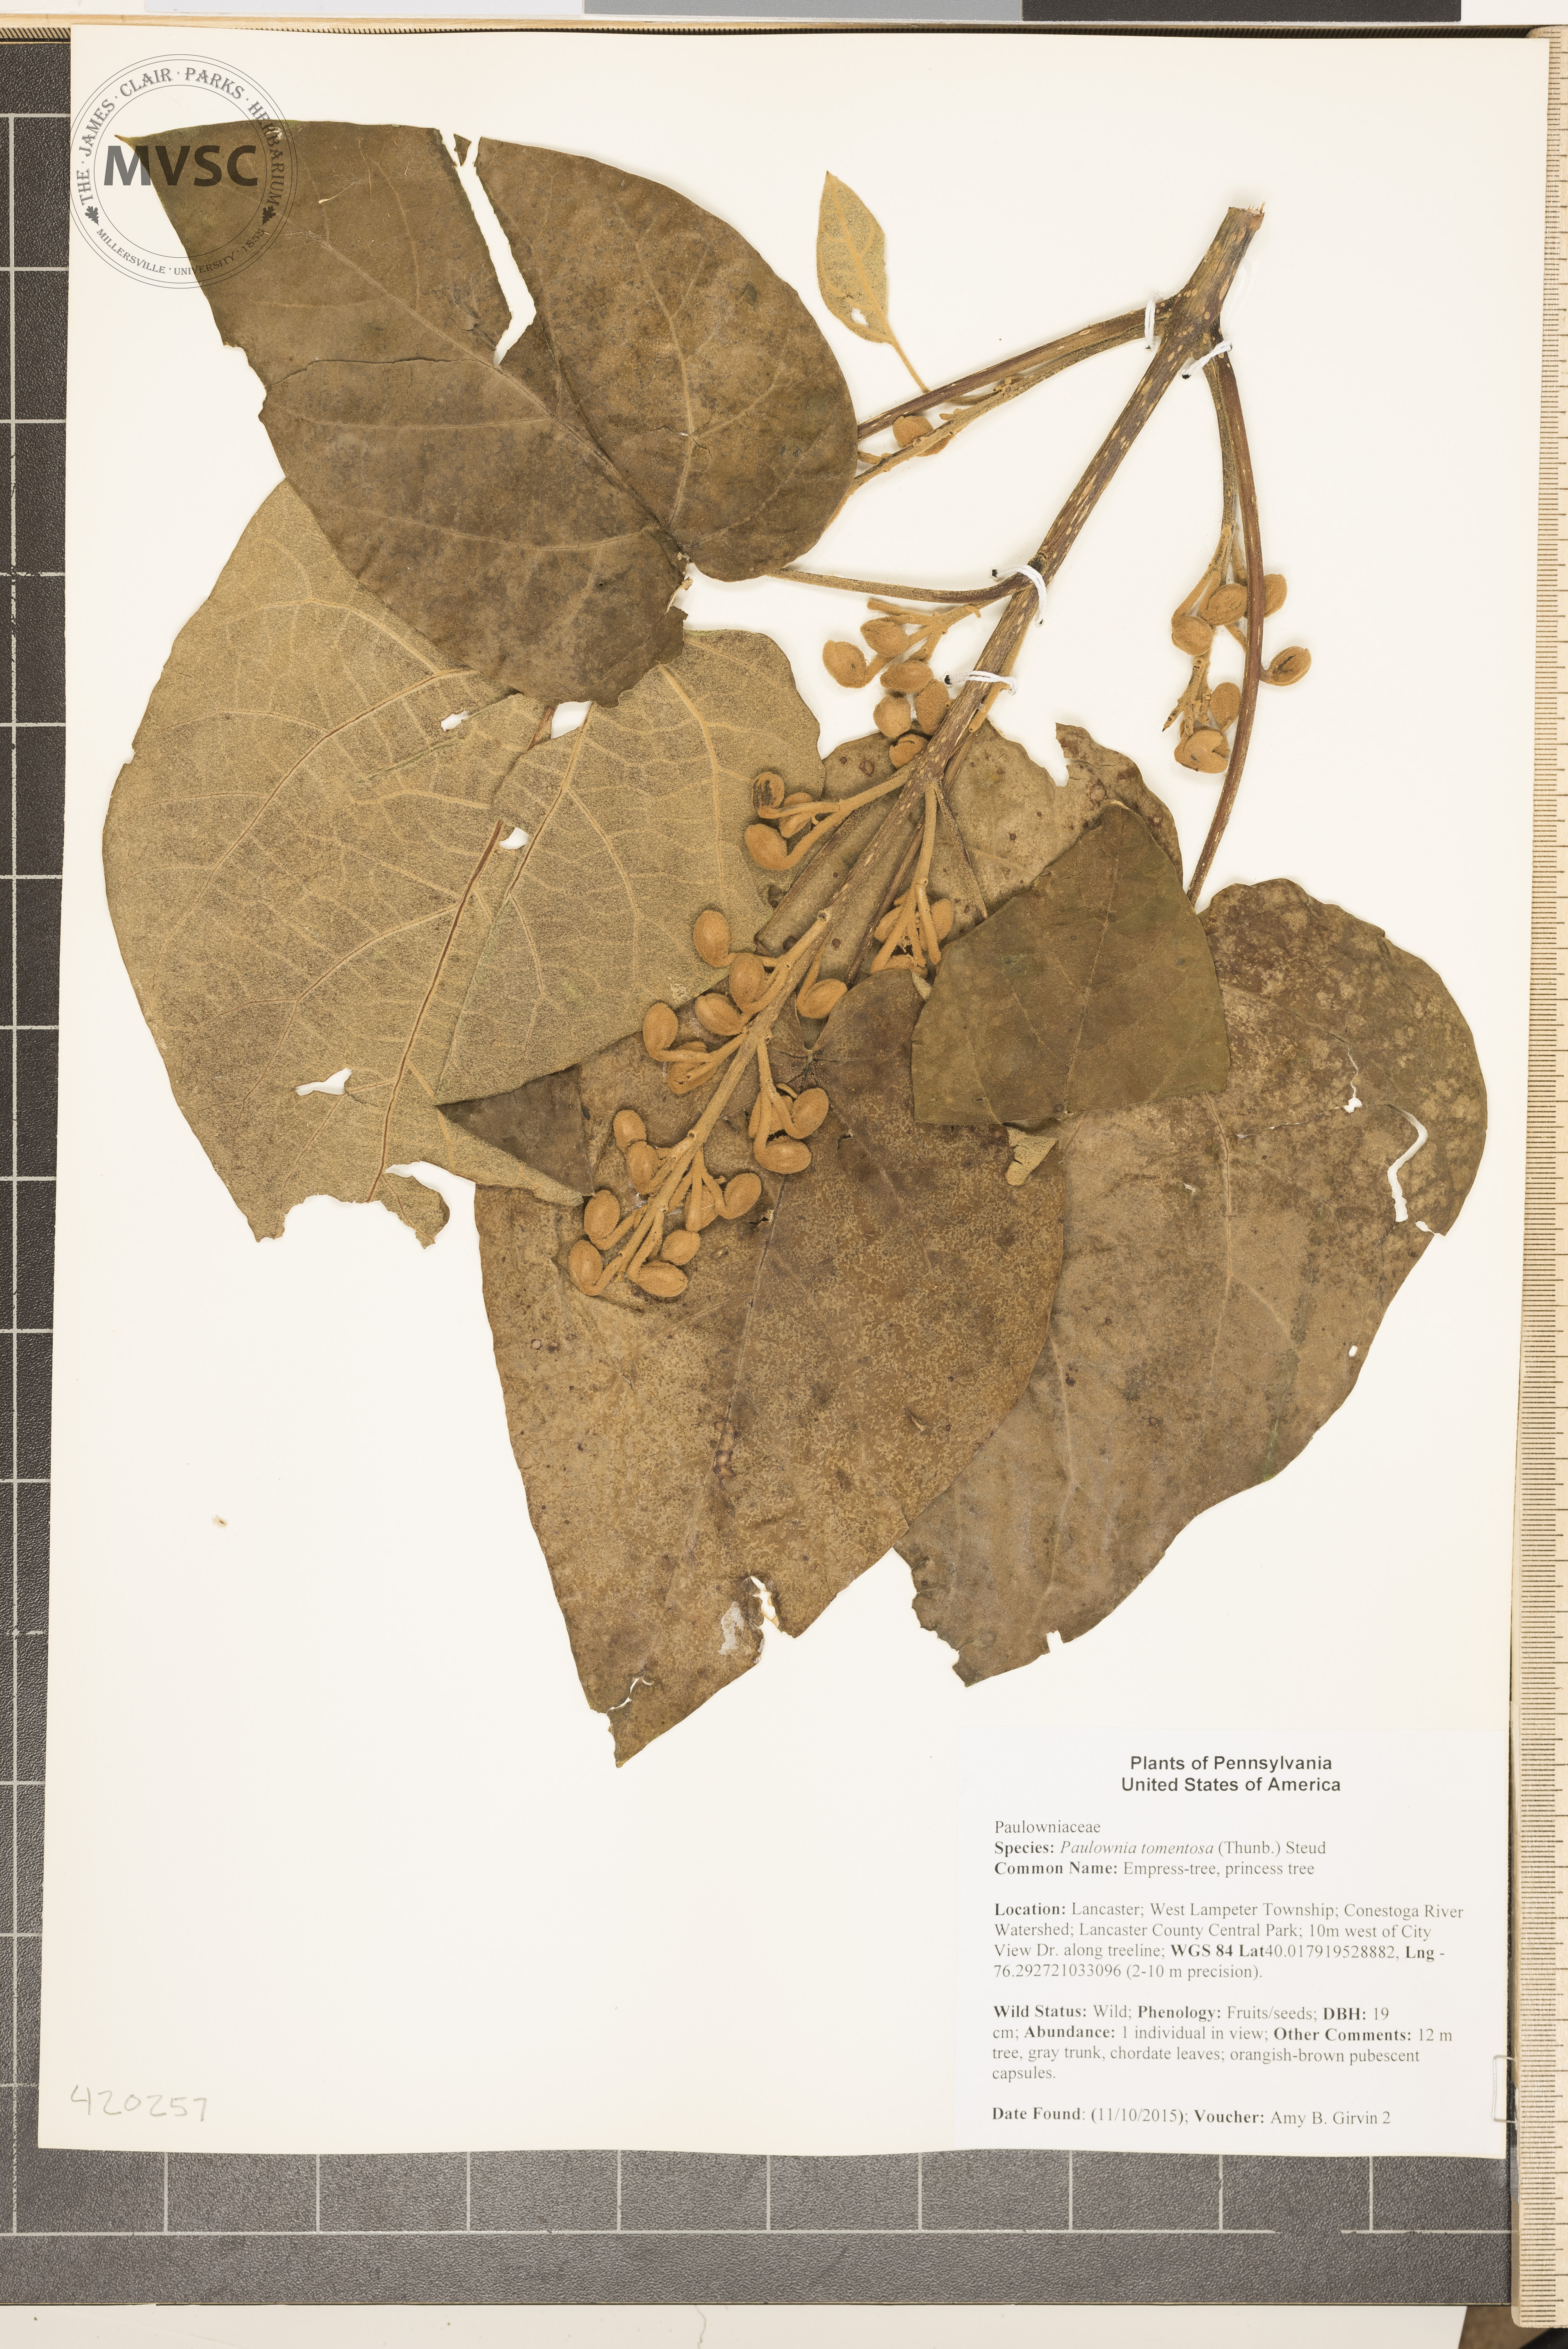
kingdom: Plantae
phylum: Tracheophyta
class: Magnoliopsida
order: Lamiales
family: Paulowniaceae
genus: Paulownia
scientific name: Paulownia tomentosa
